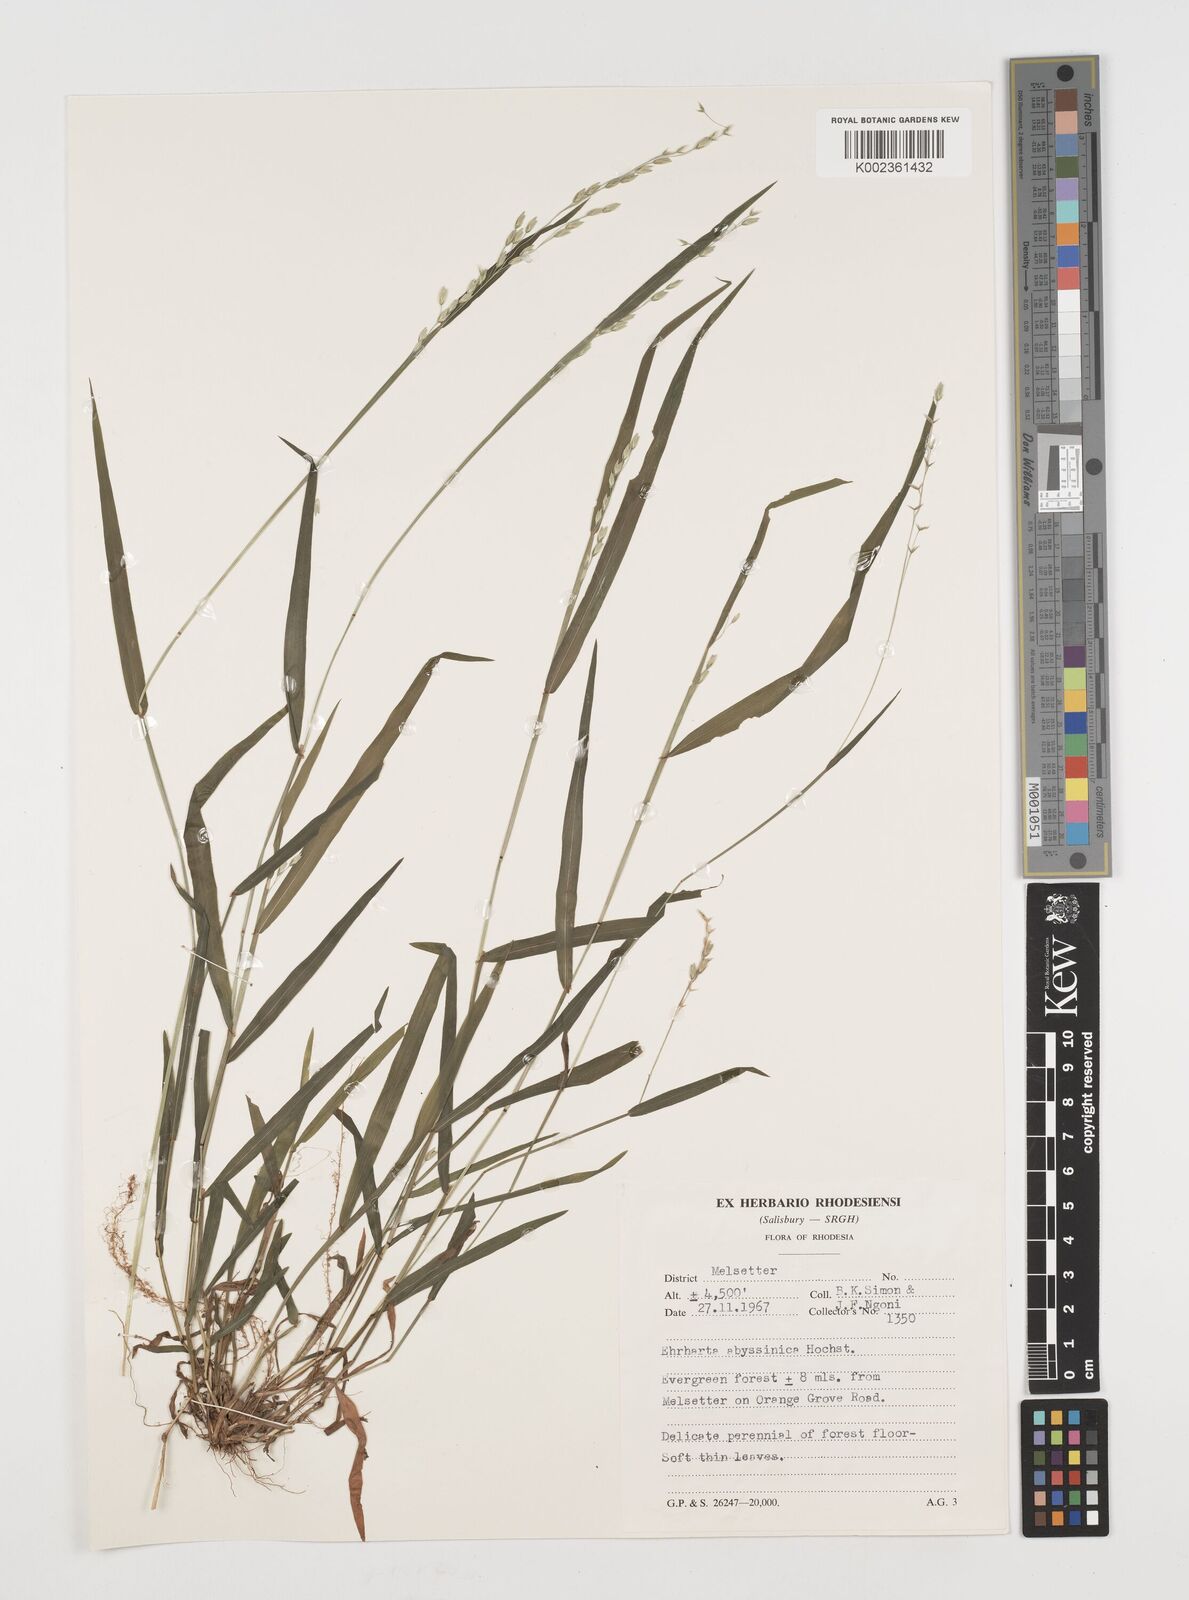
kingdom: Plantae
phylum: Tracheophyta
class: Liliopsida
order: Poales
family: Poaceae
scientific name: Poaceae
